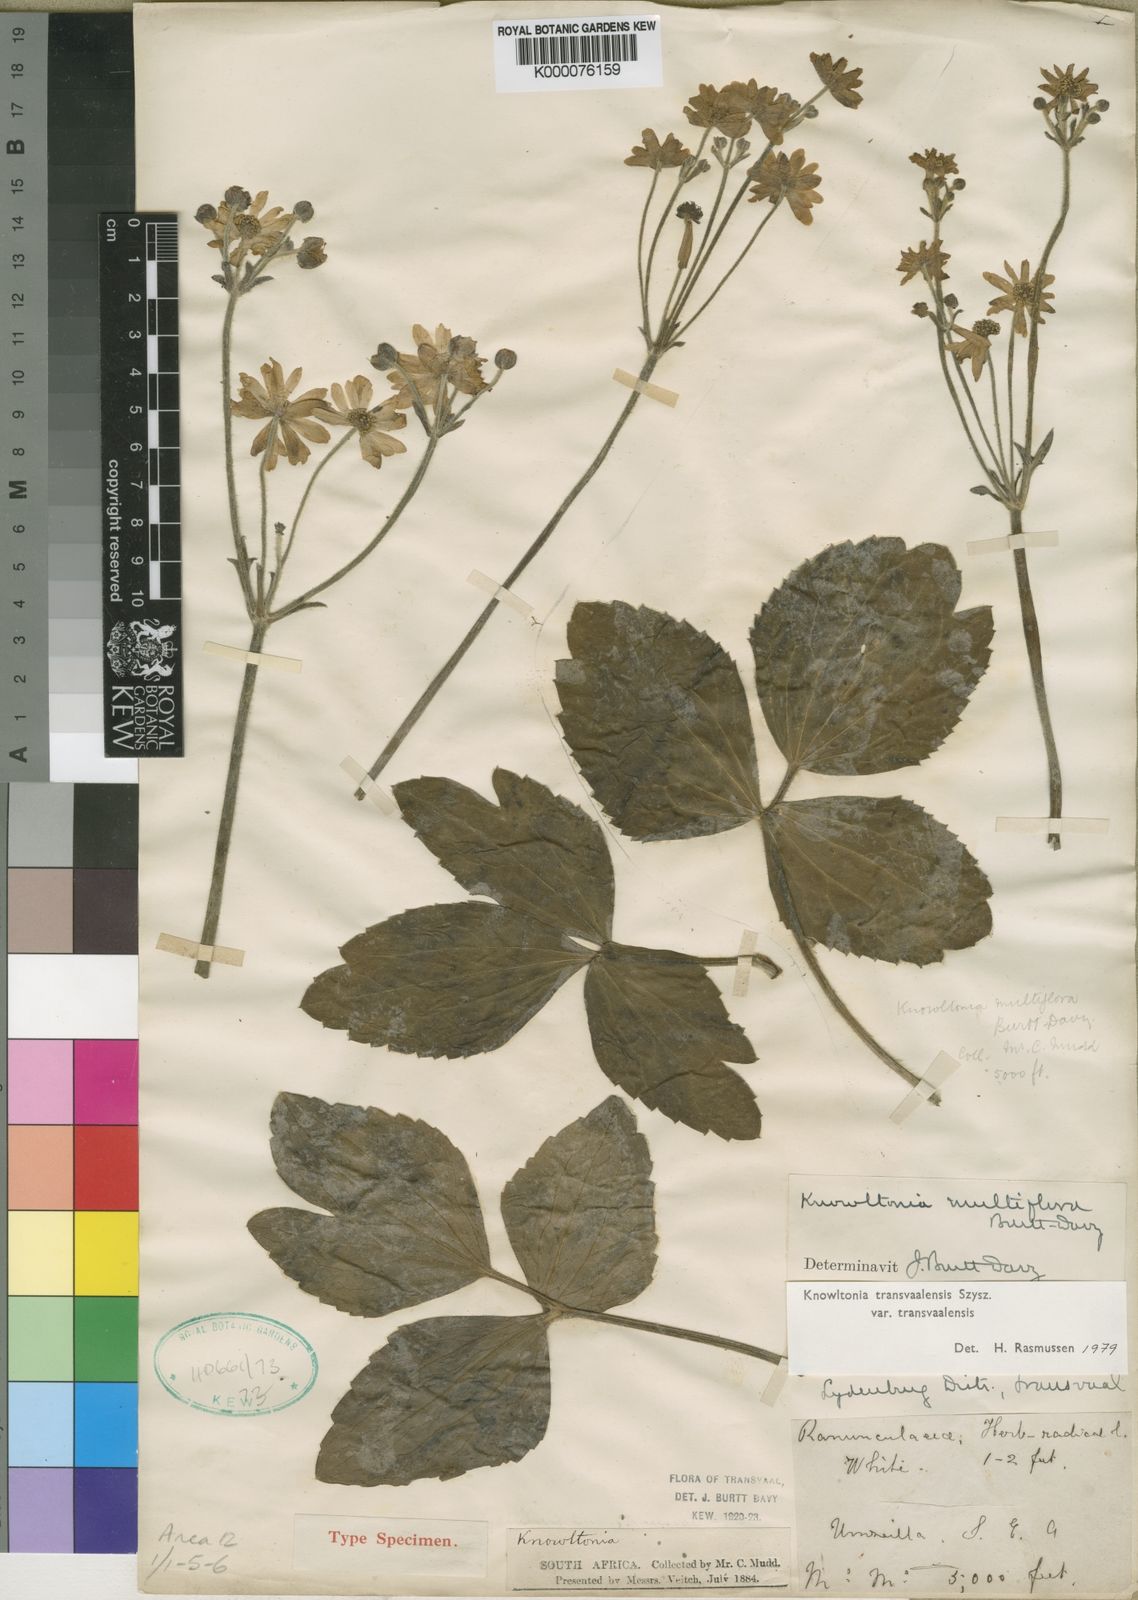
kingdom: Plantae
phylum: Tracheophyta
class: Magnoliopsida
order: Ranunculales
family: Ranunculaceae
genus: Knowltonia
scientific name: Knowltonia transvaalensis
